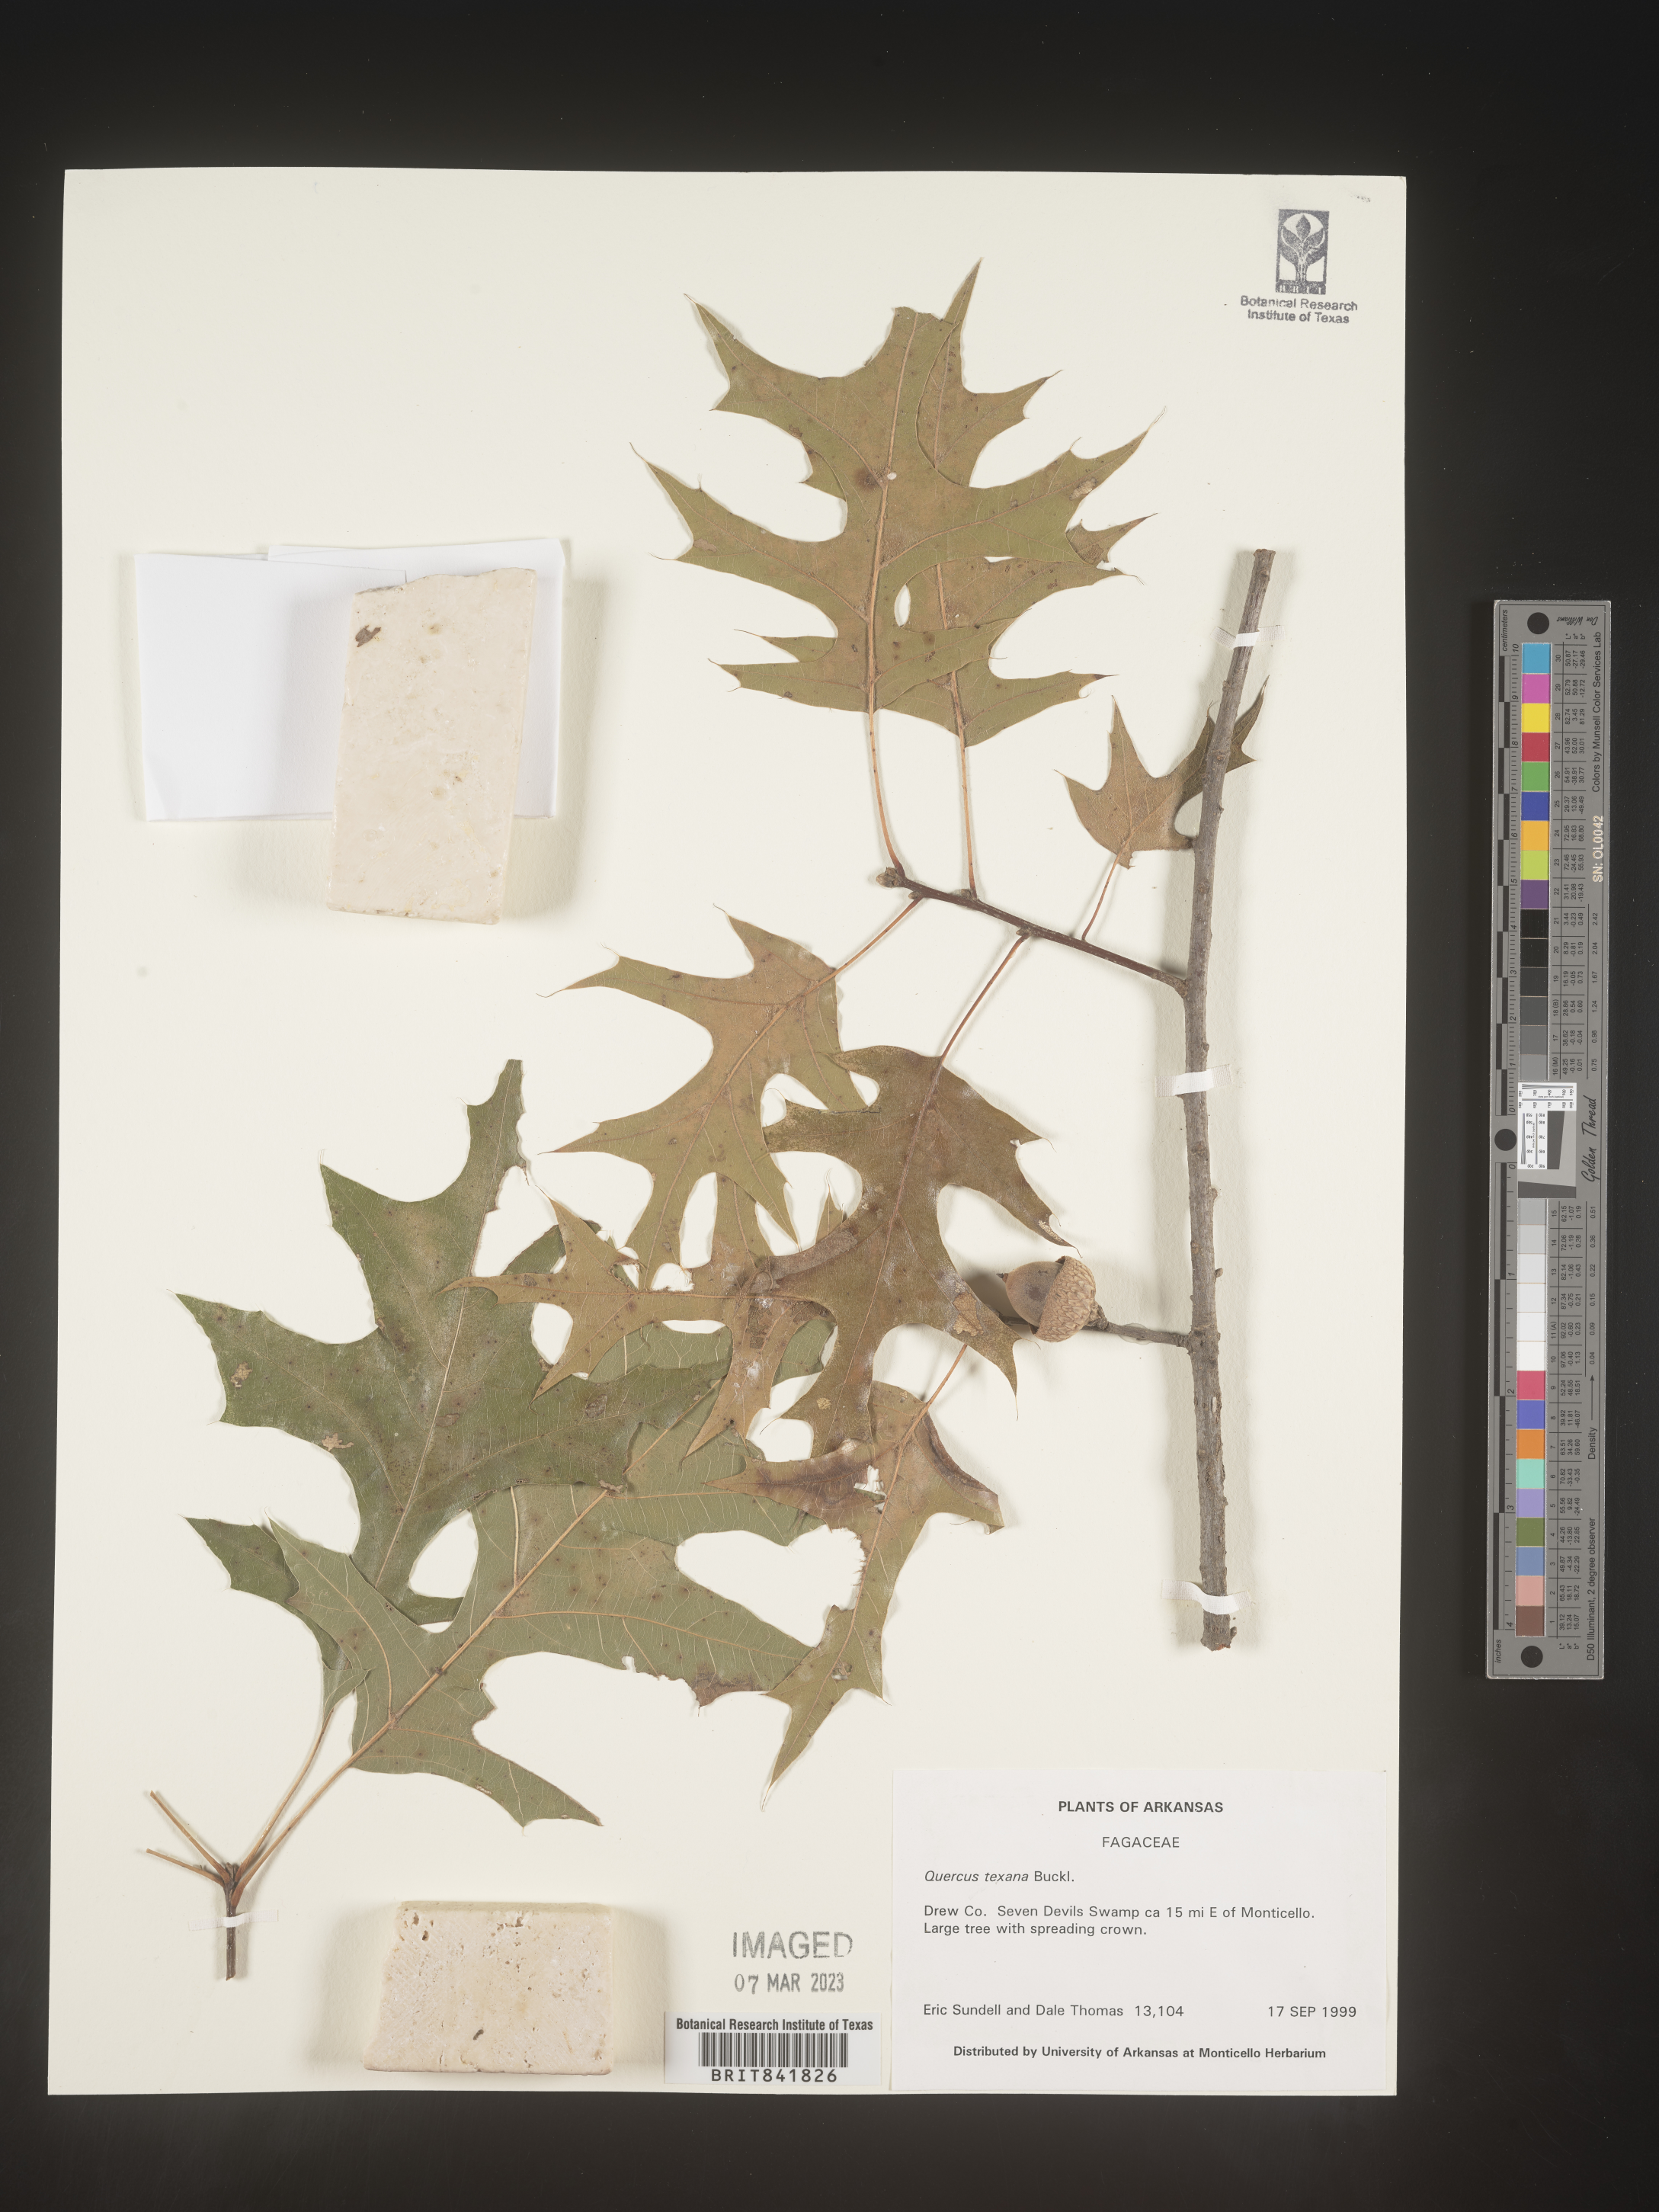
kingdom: Plantae
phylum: Tracheophyta
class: Magnoliopsida
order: Fagales
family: Fagaceae
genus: Quercus
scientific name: Quercus texana
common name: Nuttall oak
